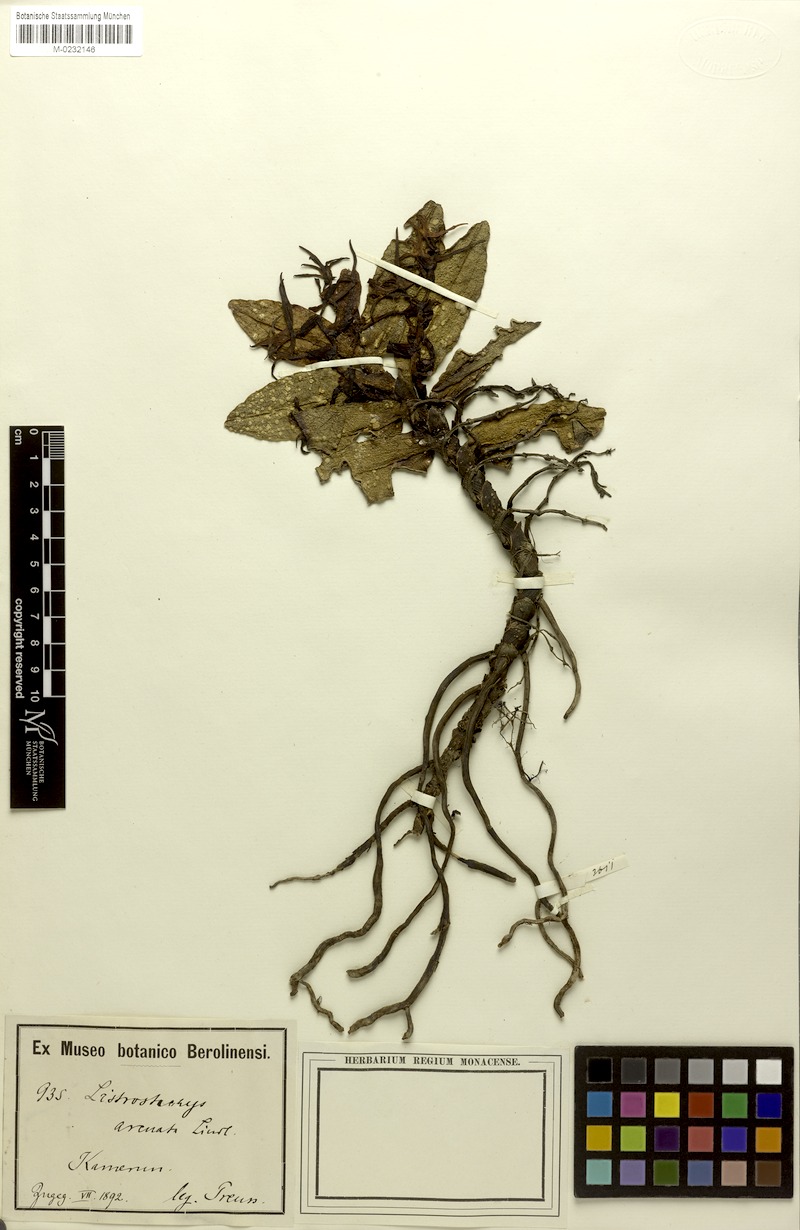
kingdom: Plantae
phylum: Tracheophyta
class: Liliopsida
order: Asparagales
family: Orchidaceae
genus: Cyrtorchis
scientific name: Cyrtorchis arcuata
